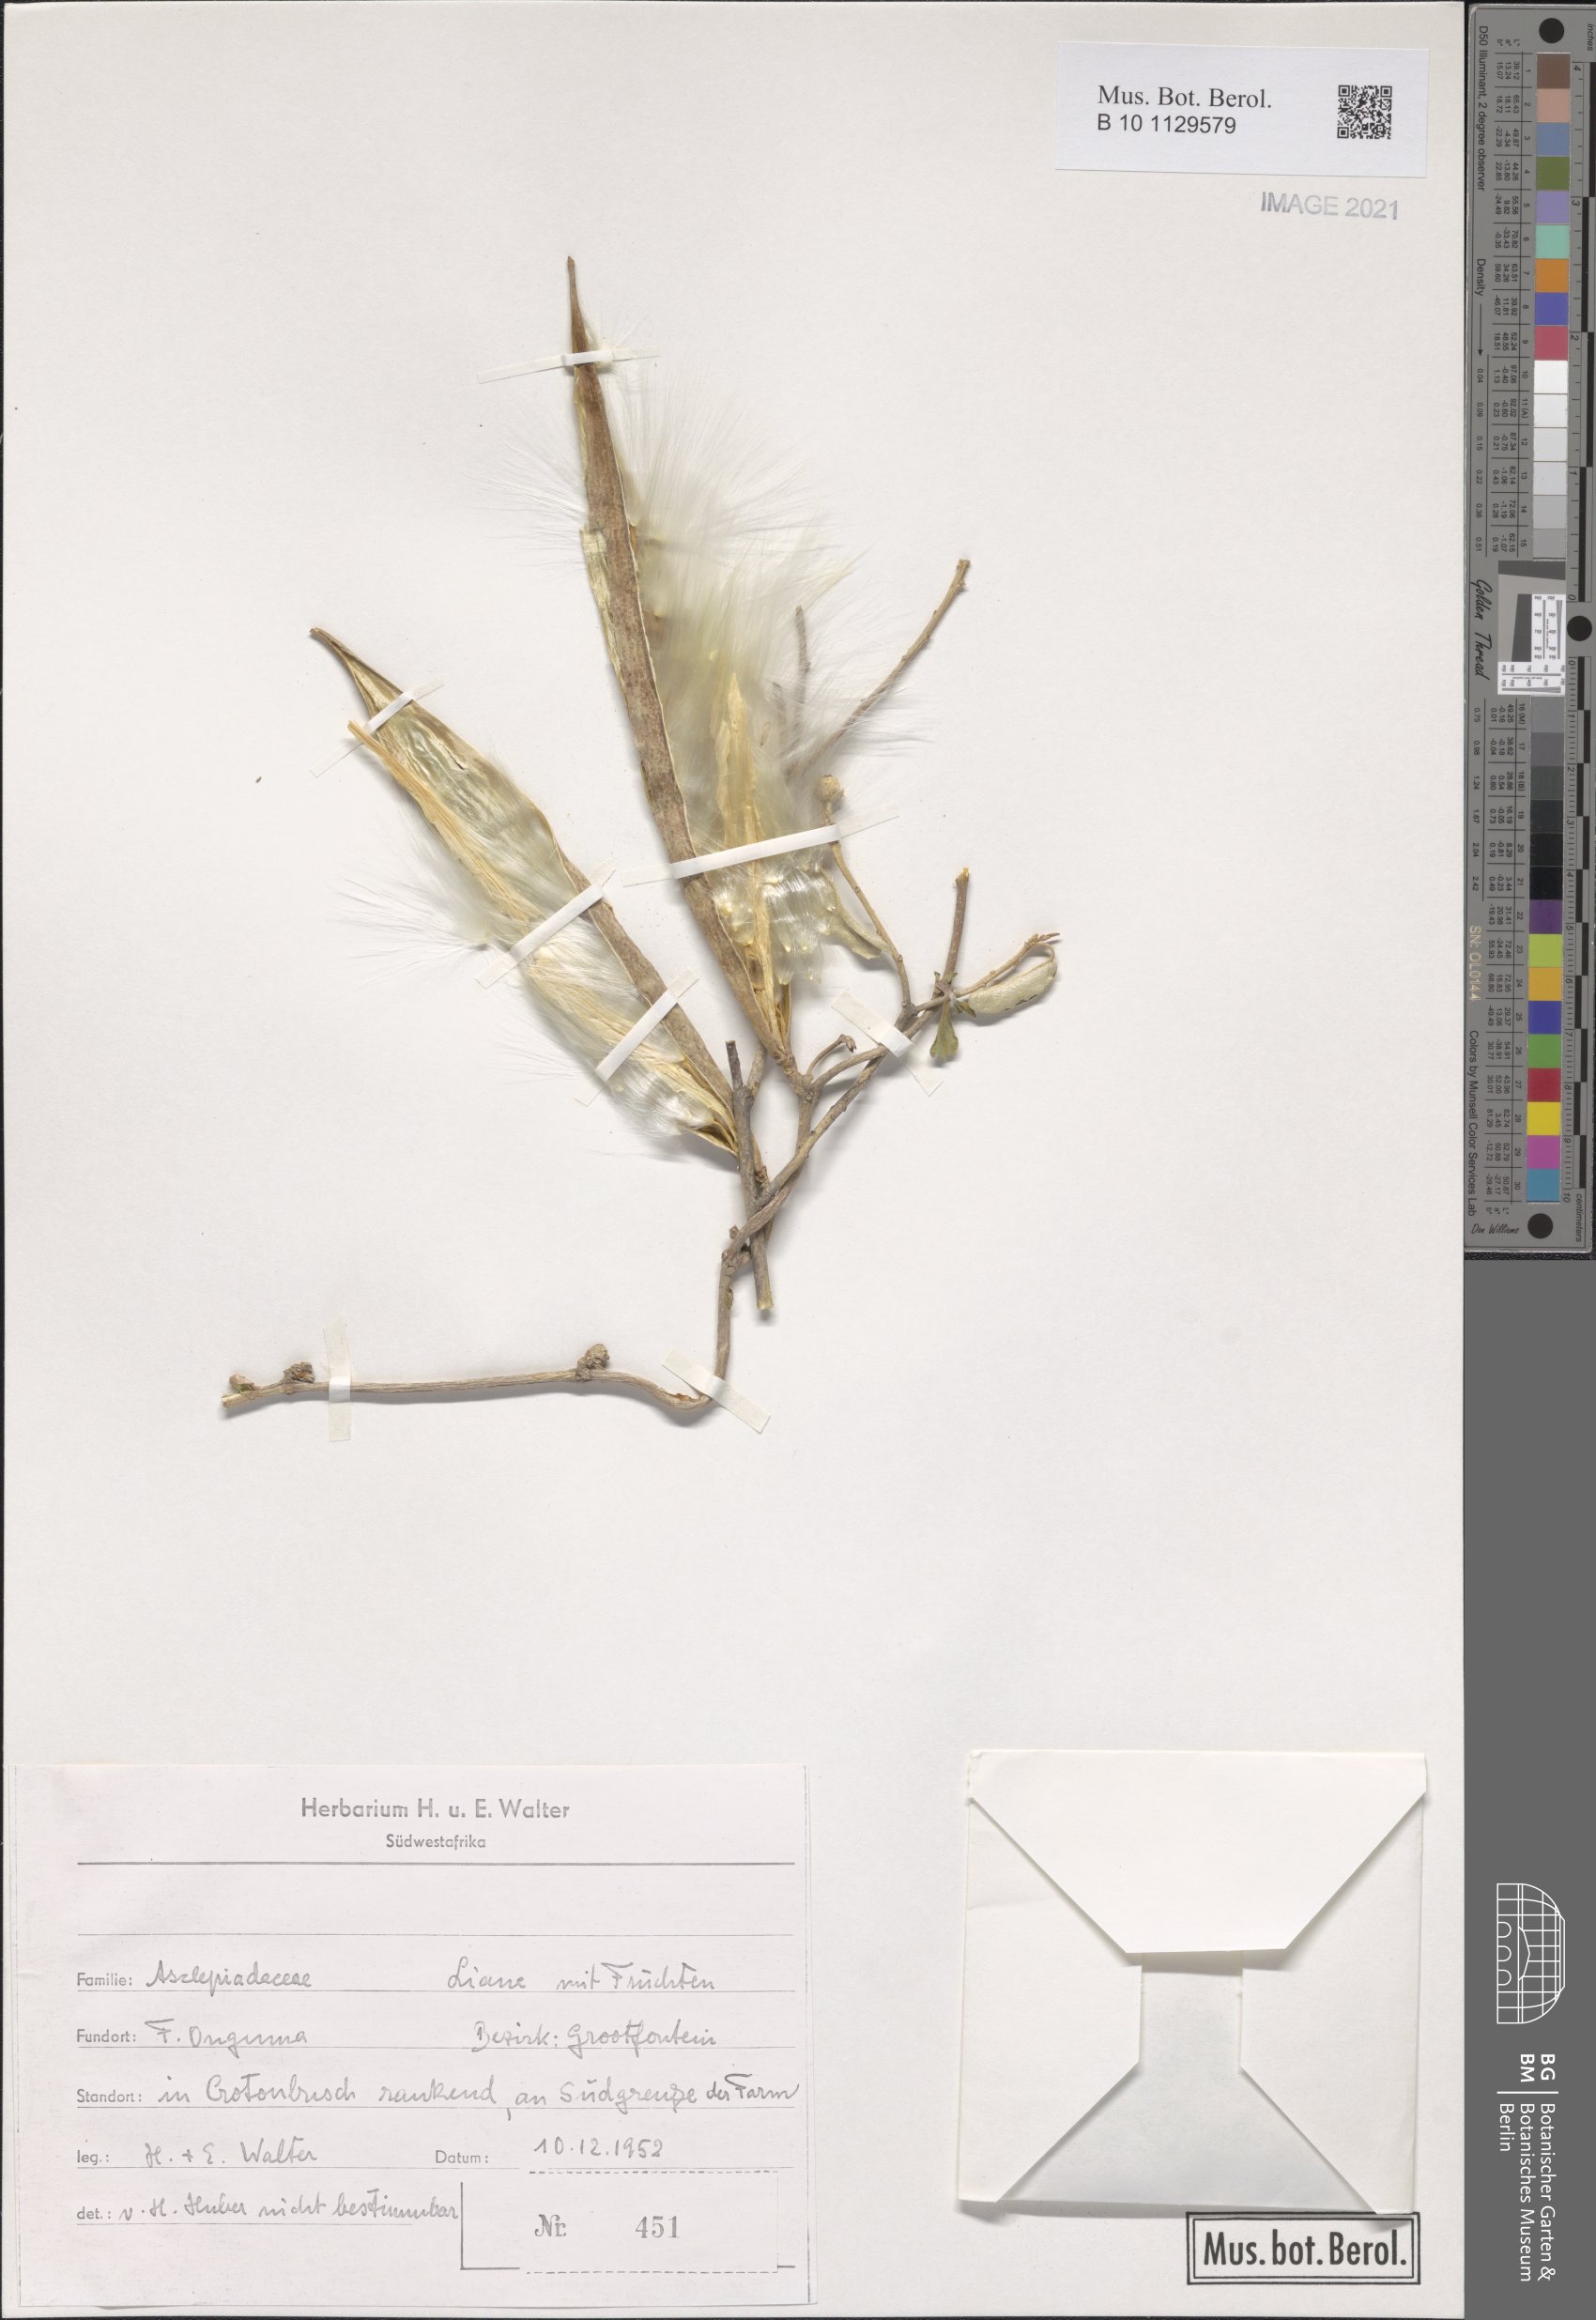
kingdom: Plantae
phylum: Tracheophyta
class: Magnoliopsida
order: Gentianales
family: Apocynaceae
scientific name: Apocynaceae
